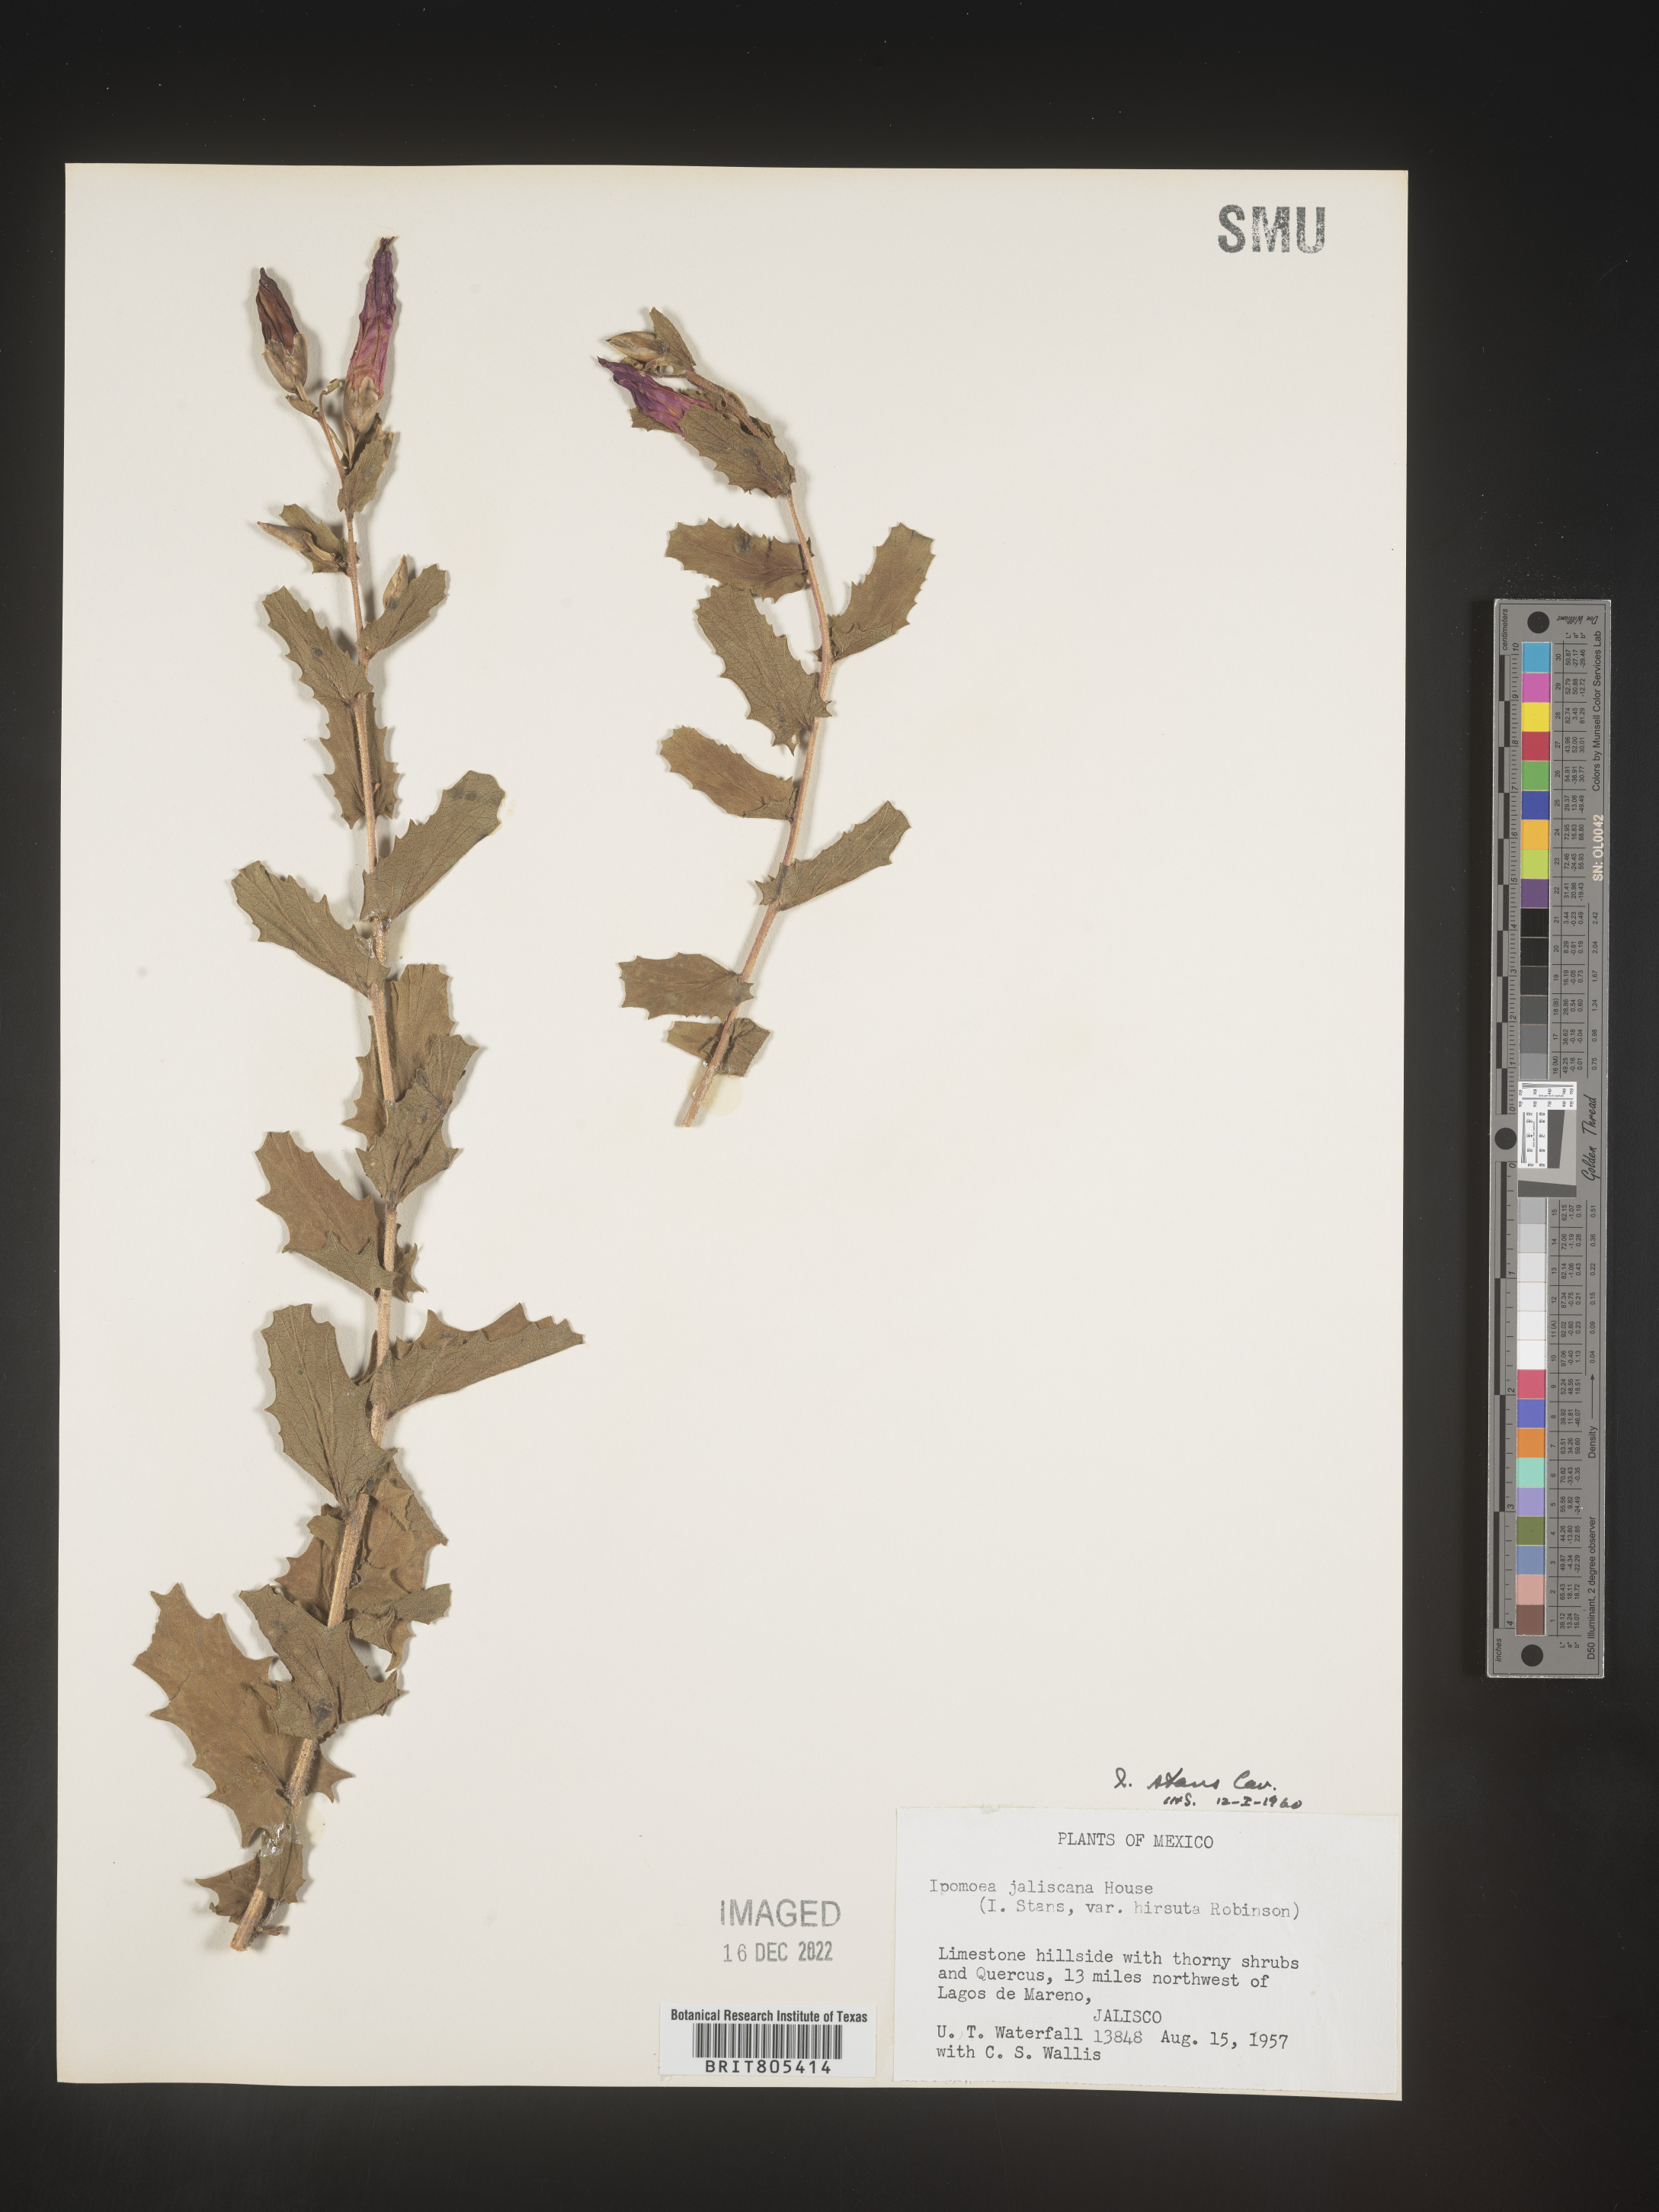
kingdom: Plantae
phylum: Tracheophyta
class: Magnoliopsida
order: Solanales
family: Convolvulaceae
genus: Ipomoea
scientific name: Ipomoea
